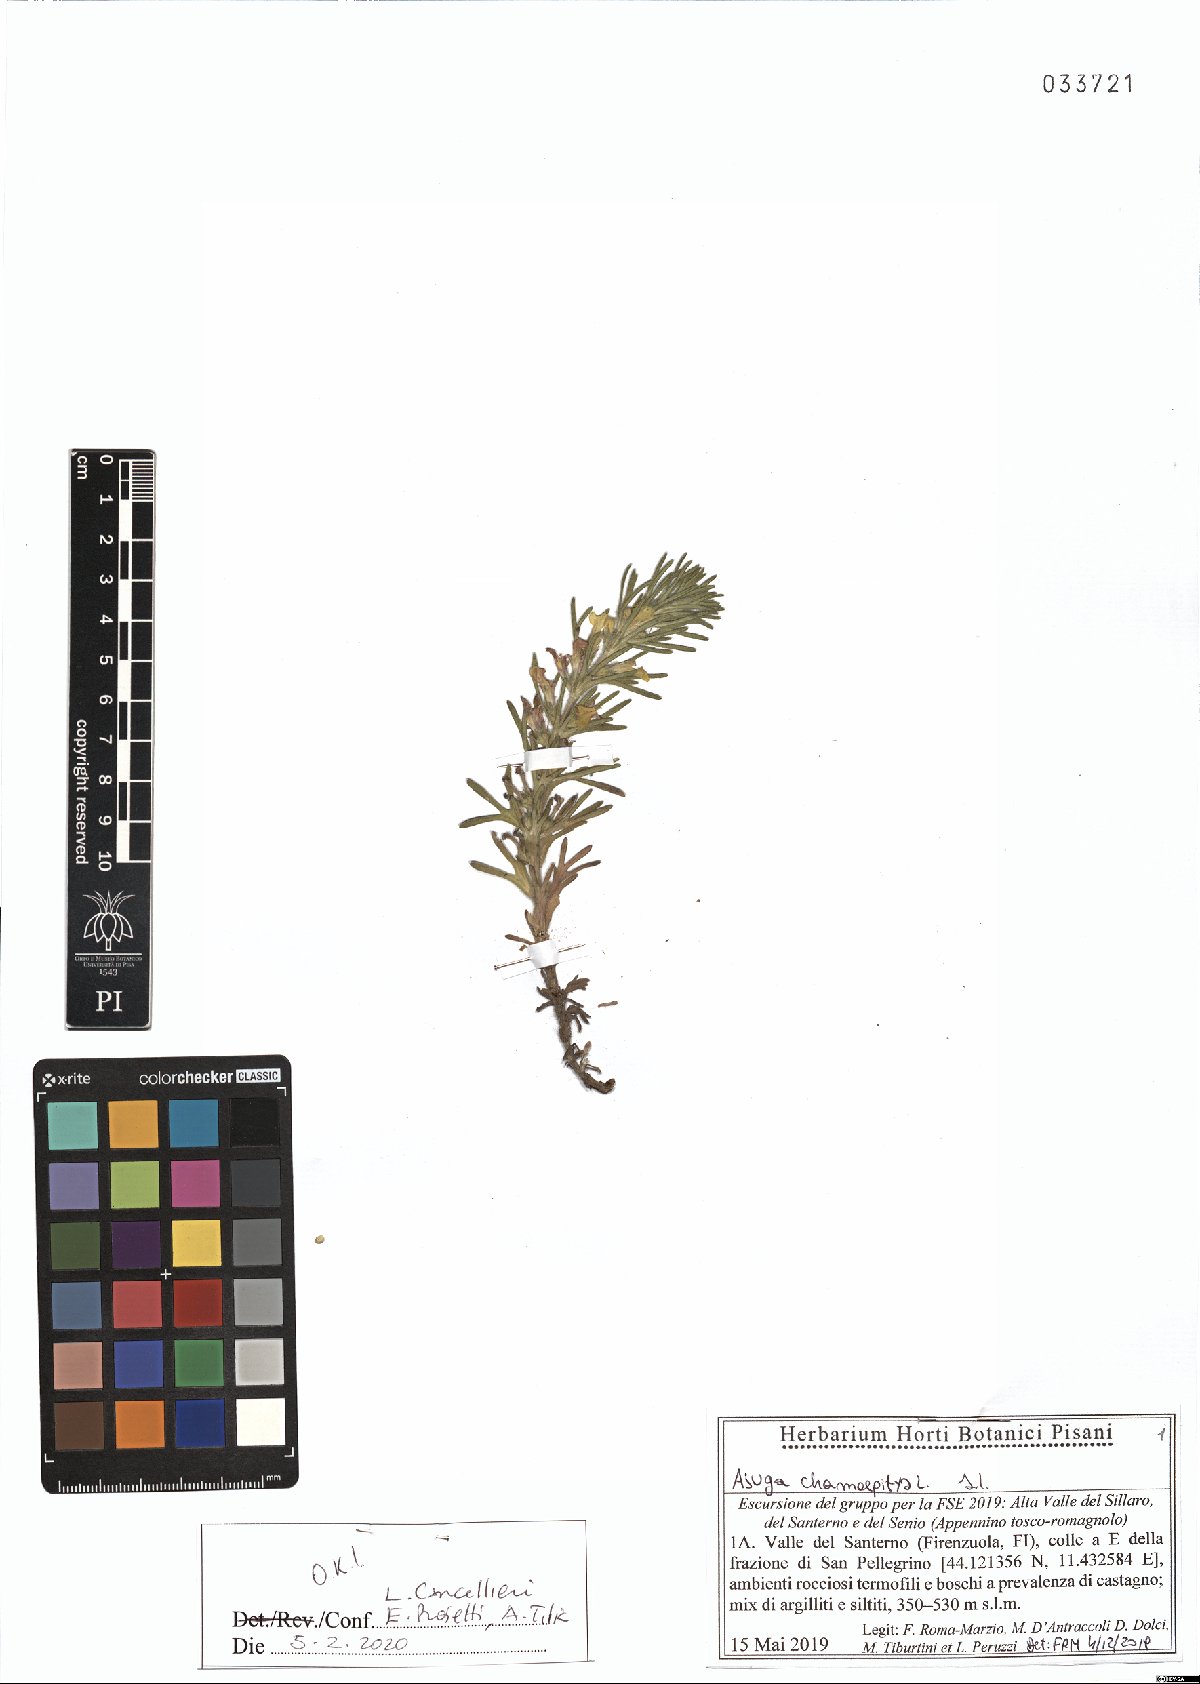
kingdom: Plantae
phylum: Tracheophyta
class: Magnoliopsida
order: Lamiales
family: Lamiaceae
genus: Ajuga
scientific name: Ajuga chamaepitys
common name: Ground-pine
